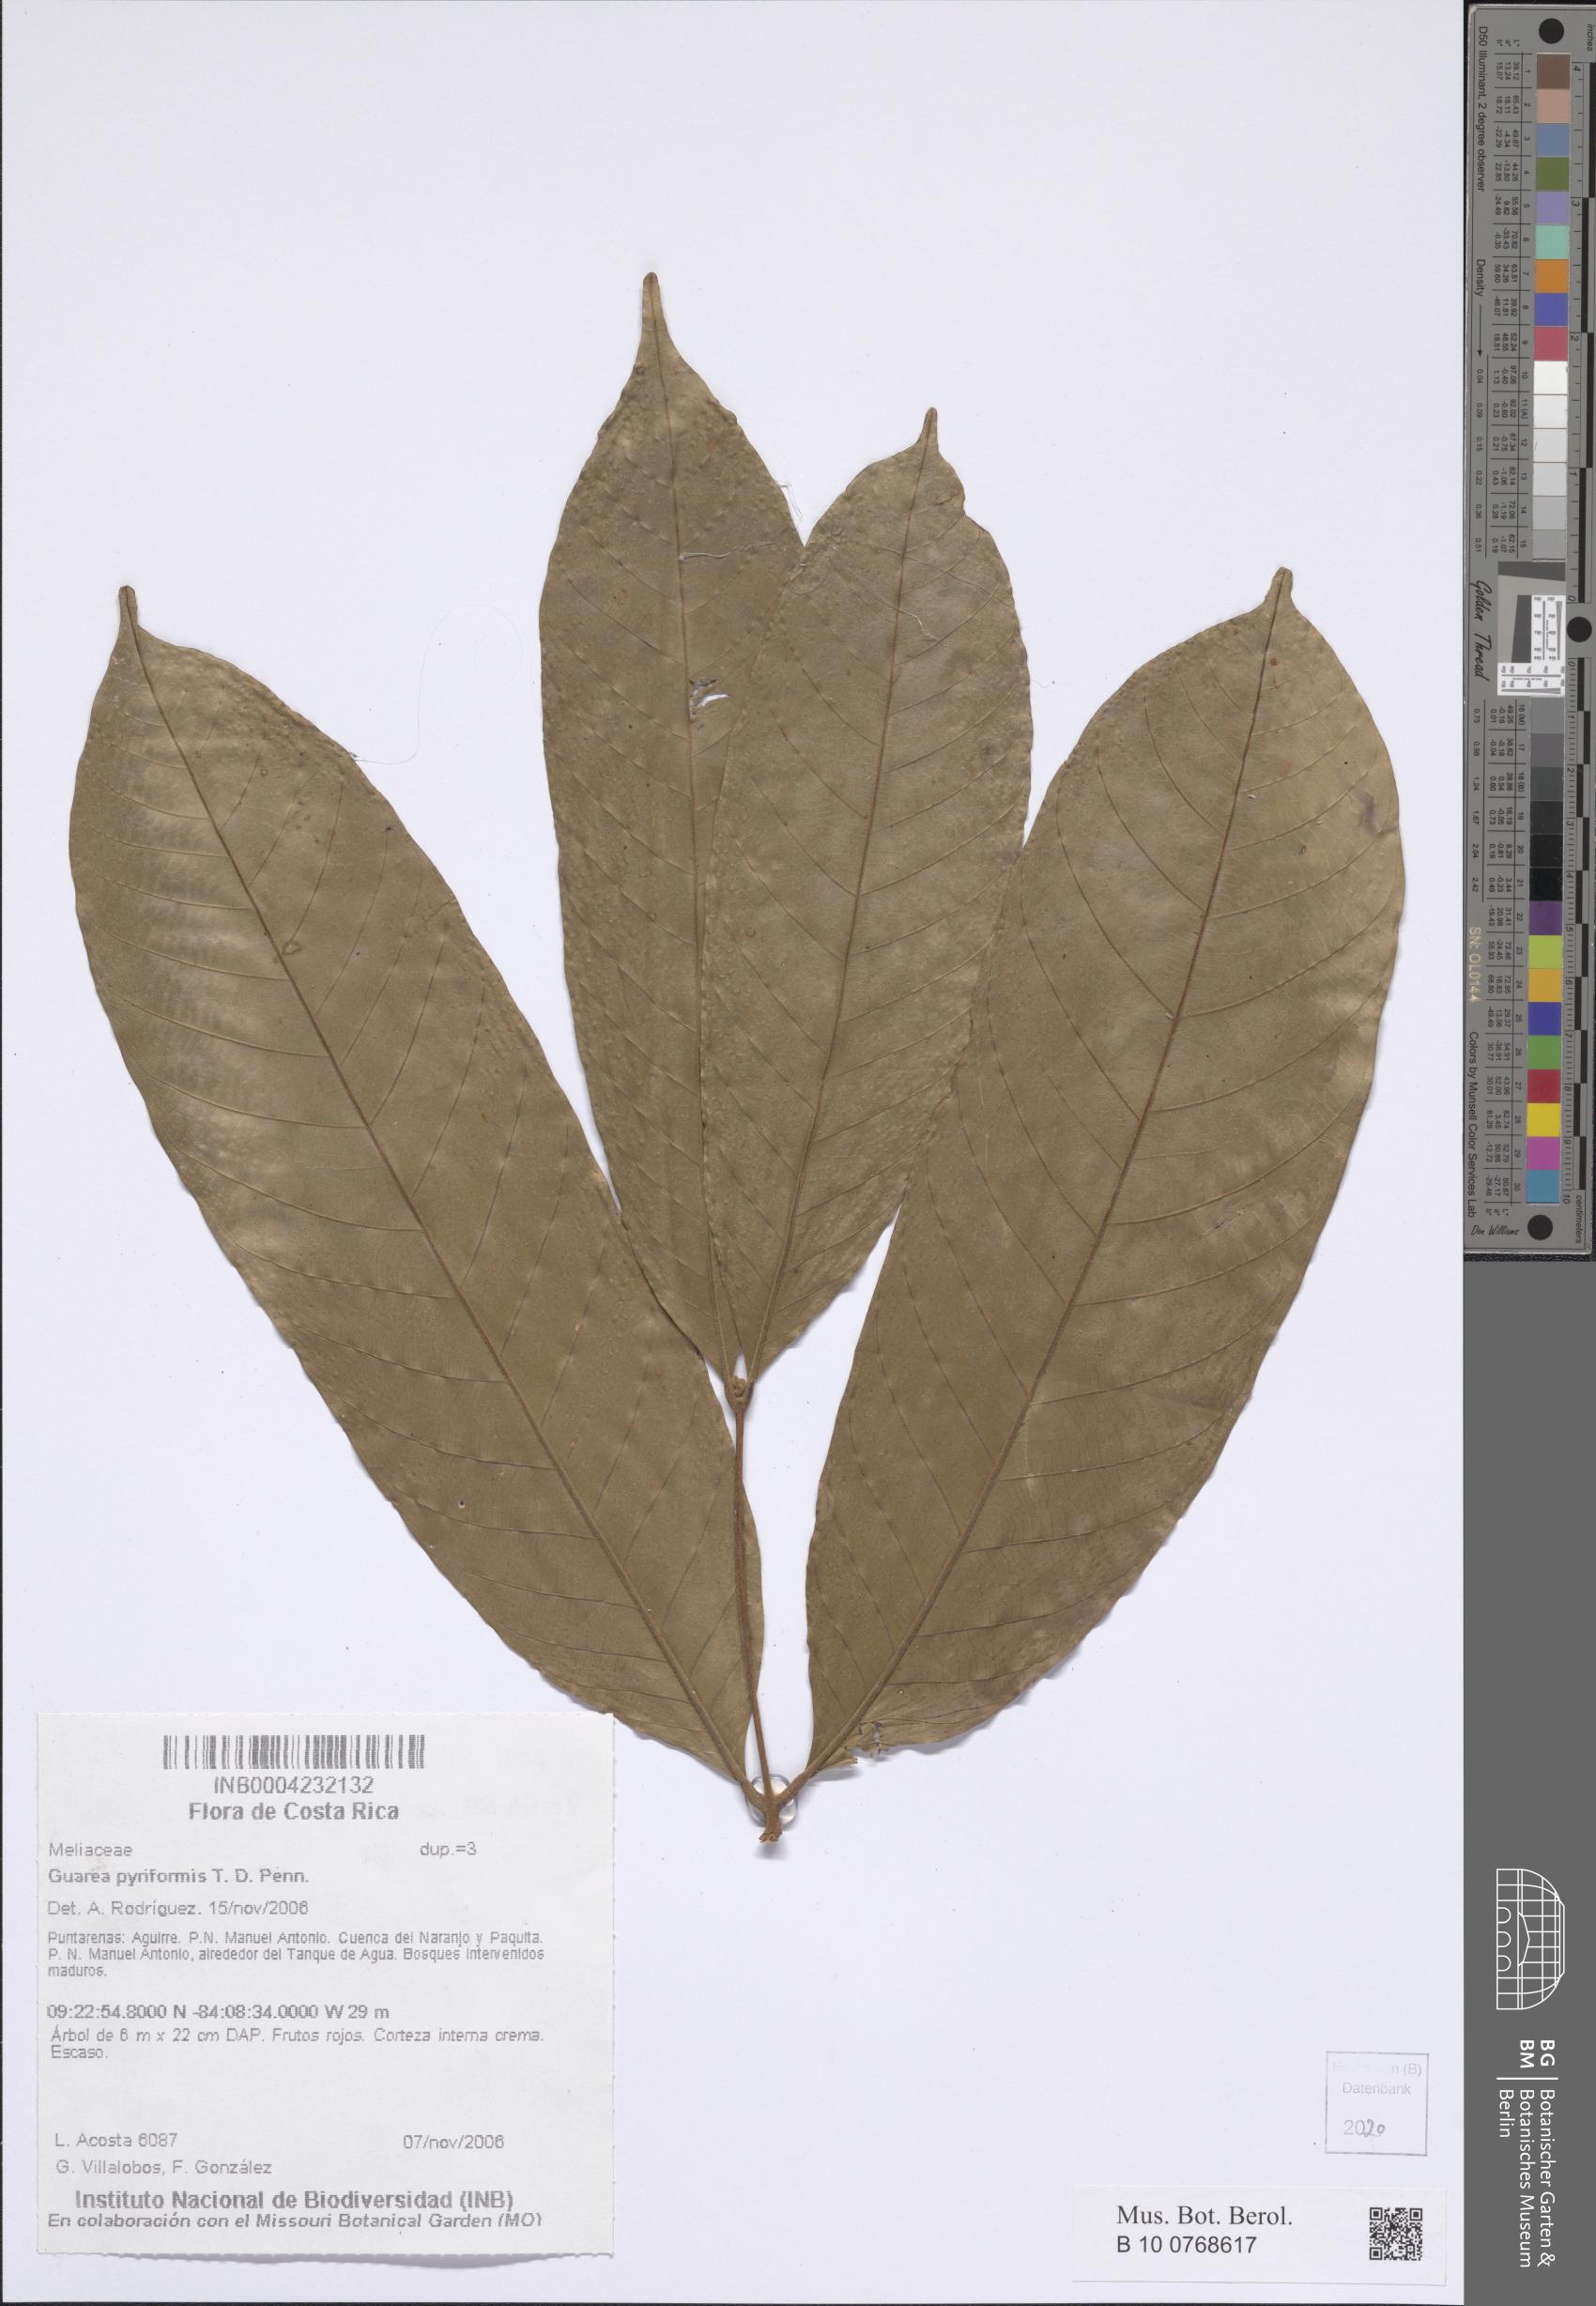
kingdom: Plantae
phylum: Tracheophyta
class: Magnoliopsida
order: Sapindales
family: Meliaceae
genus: Guarea
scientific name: Guarea pyriformis
